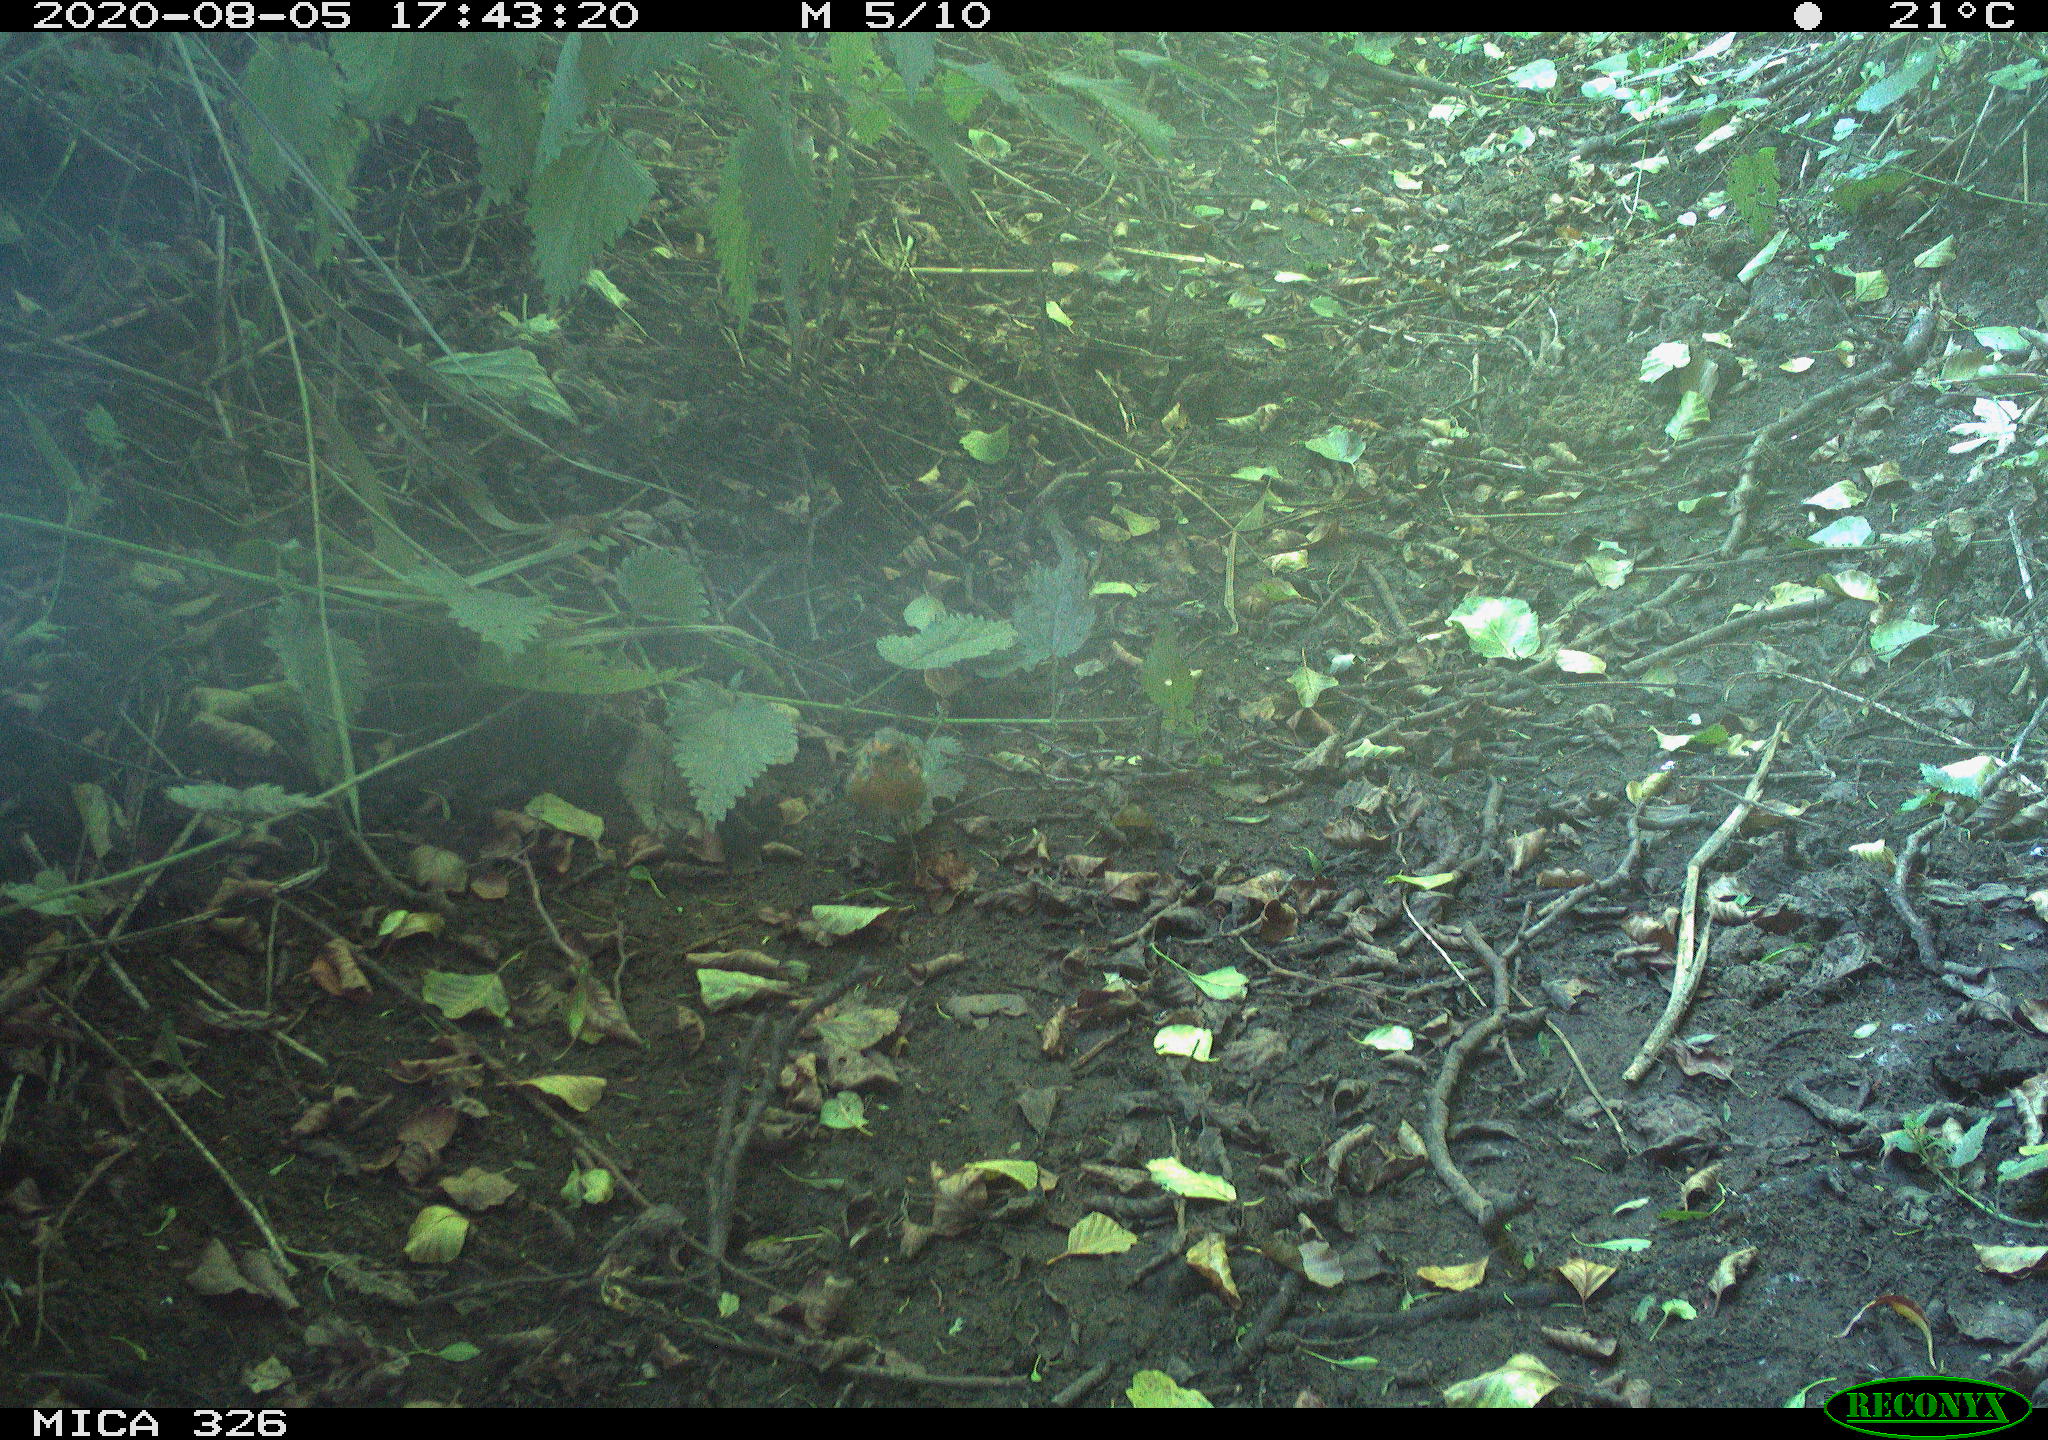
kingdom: Animalia
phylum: Chordata
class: Aves
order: Passeriformes
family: Muscicapidae
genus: Erithacus
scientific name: Erithacus rubecula
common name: European robin
